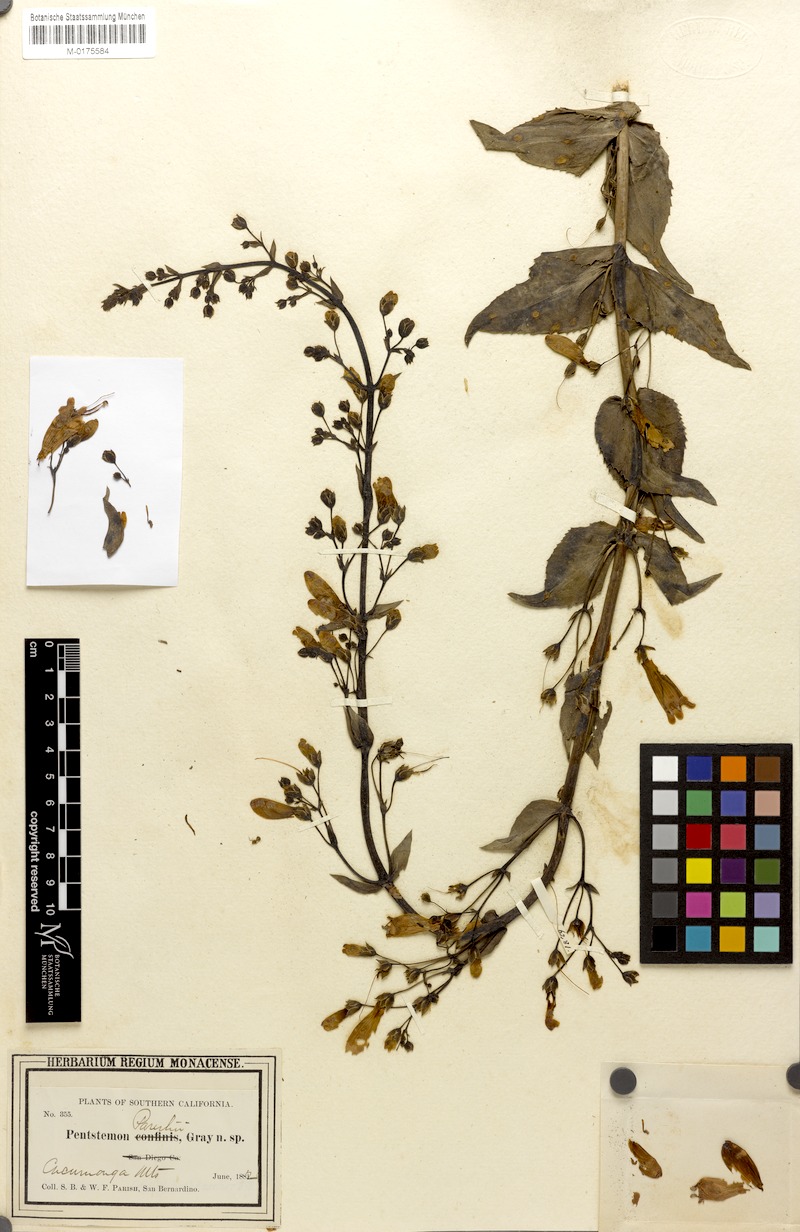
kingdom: Plantae
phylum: Tracheophyta
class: Magnoliopsida
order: Lamiales
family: Plantaginaceae
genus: Penstemon
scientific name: Penstemon parishii
